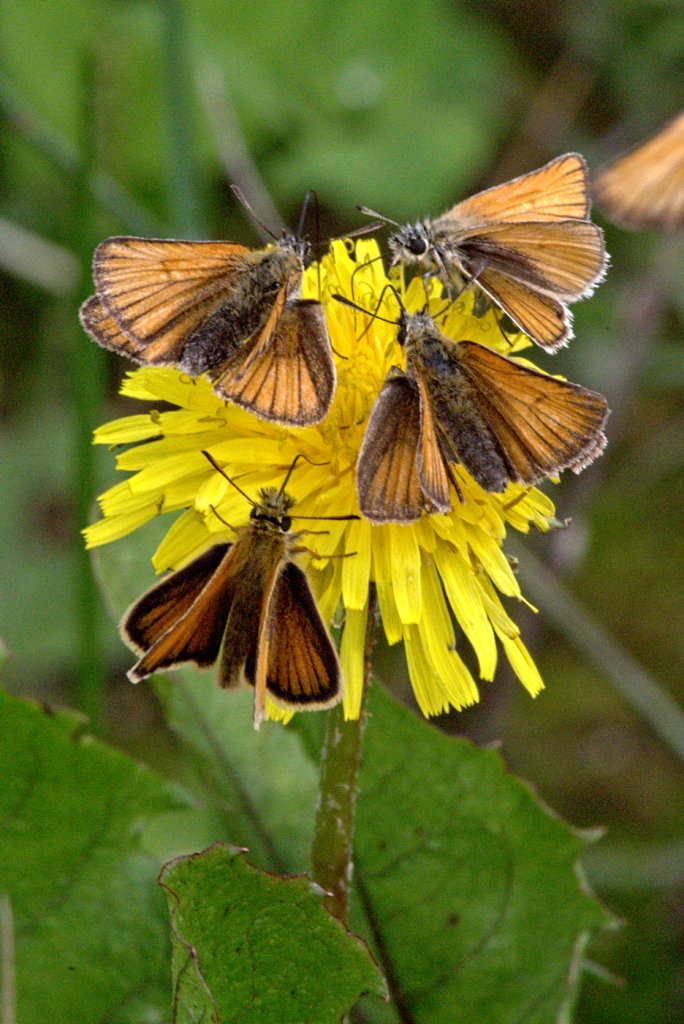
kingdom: Animalia
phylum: Arthropoda
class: Insecta
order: Lepidoptera
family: Hesperiidae
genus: Thymelicus
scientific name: Thymelicus lineola
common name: European Skipper
